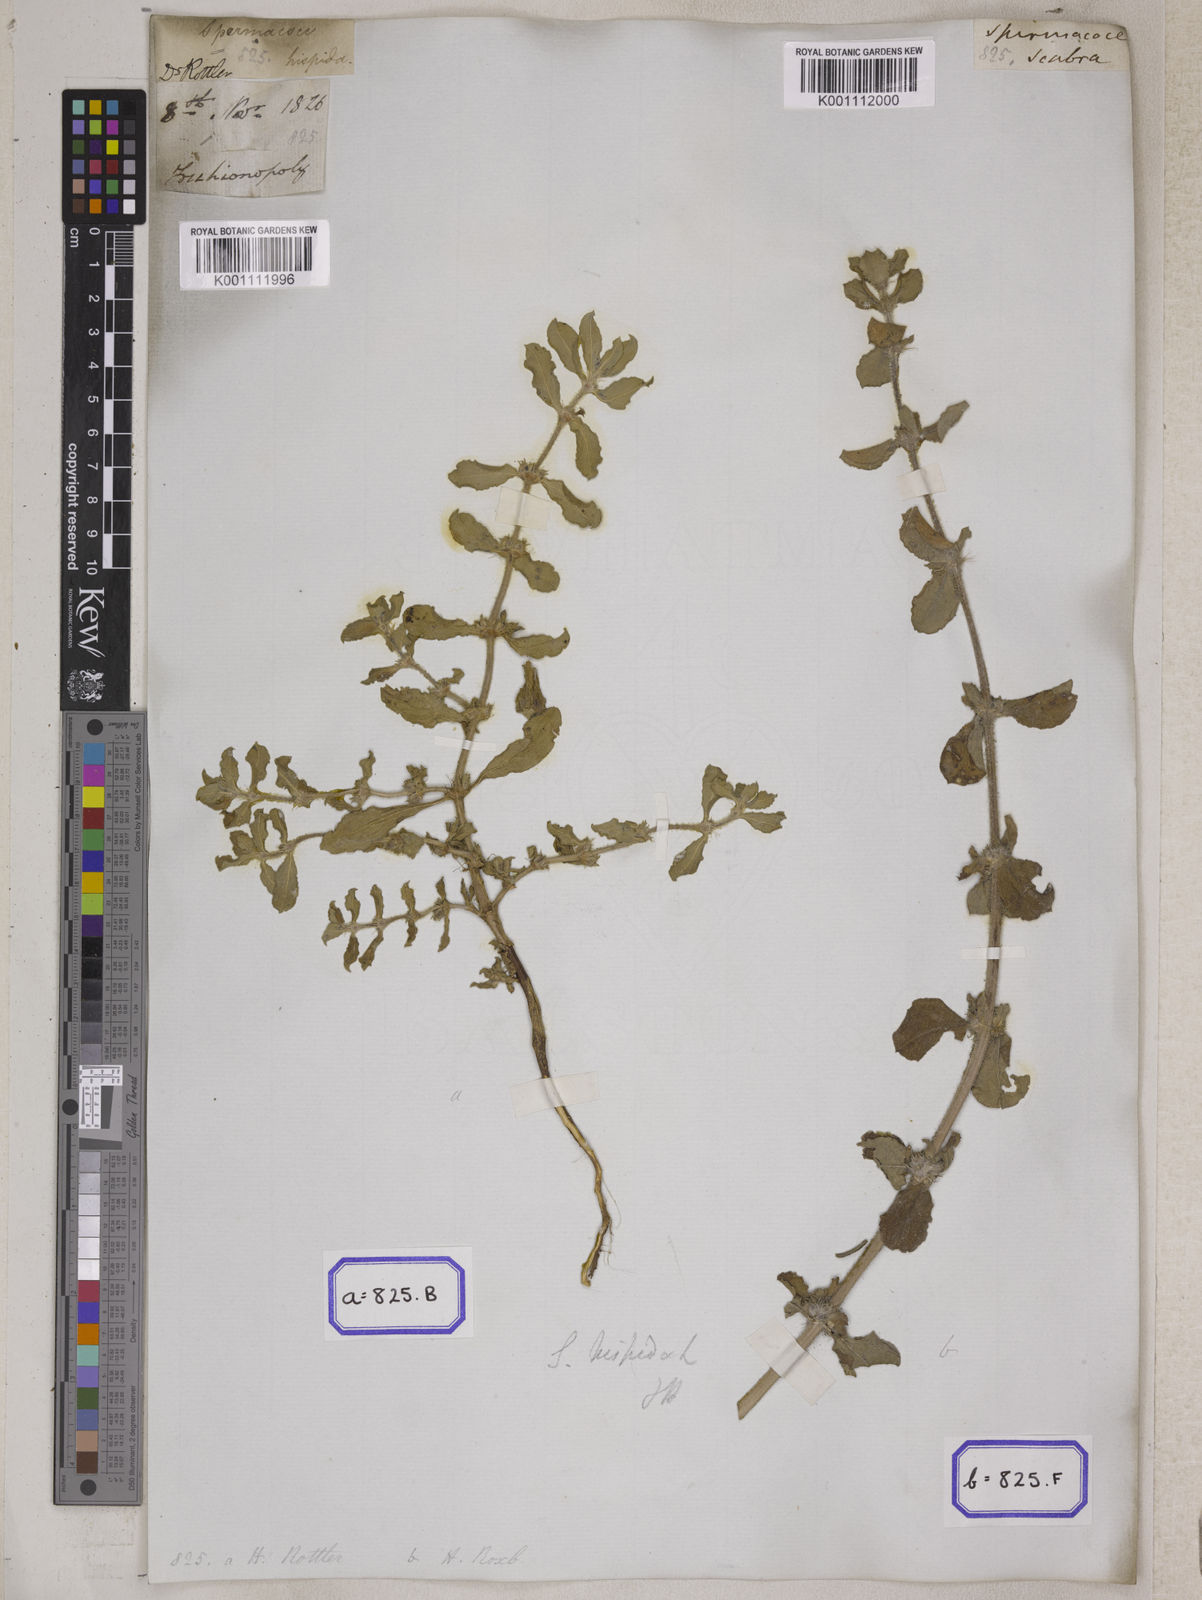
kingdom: Plantae
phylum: Tracheophyta
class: Magnoliopsida
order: Gentianales
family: Rubiaceae
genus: Spermacoce
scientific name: Spermacoce hispida
